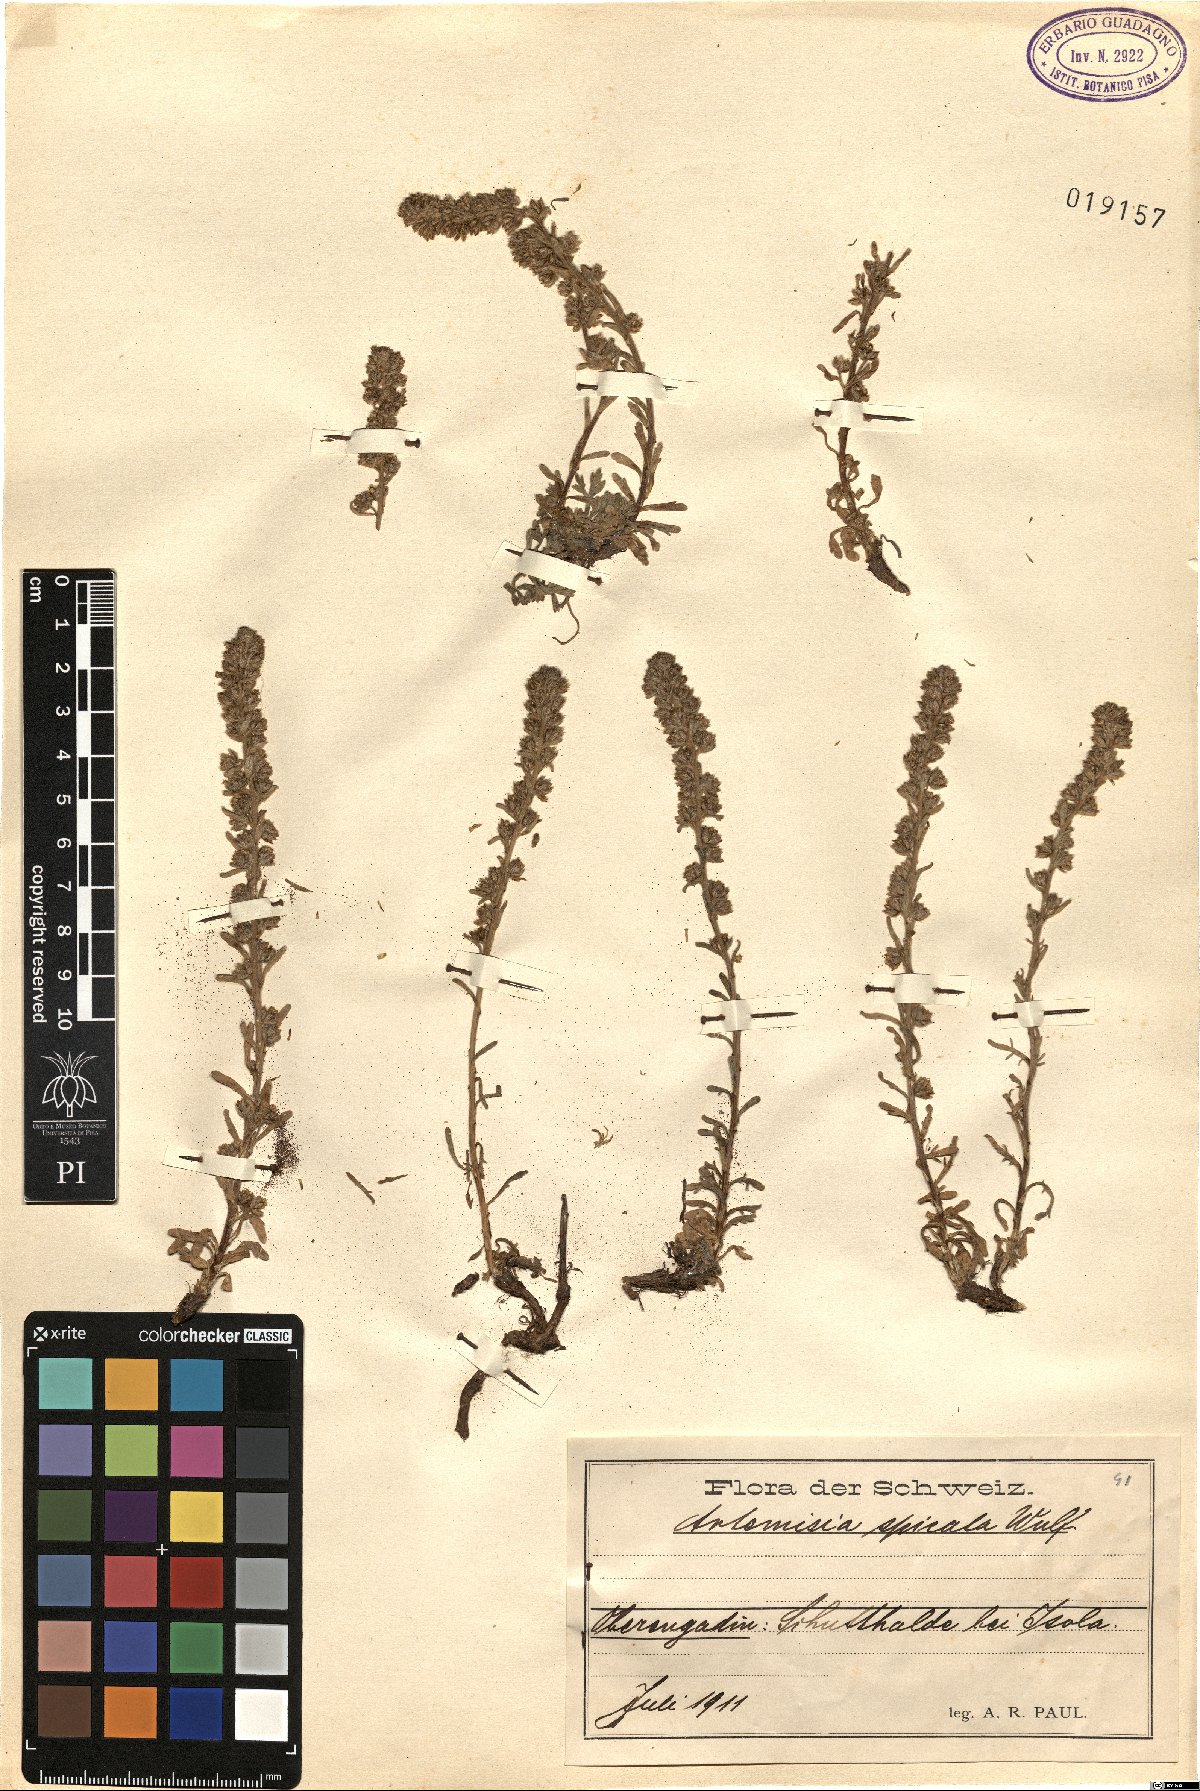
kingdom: Plantae
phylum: Tracheophyta
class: Magnoliopsida
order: Asterales
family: Asteraceae
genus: Artemisia
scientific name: Artemisia genipi
